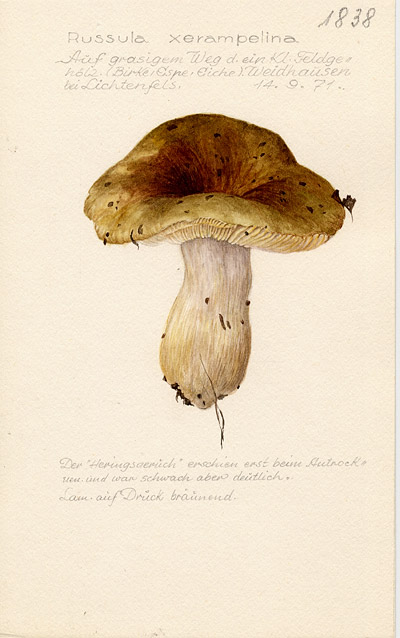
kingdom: Fungi
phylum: Basidiomycota
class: Agaricomycetes
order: Russulales
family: Russulaceae
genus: Russula
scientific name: Russula xerampelina
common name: Crab brittlegill
